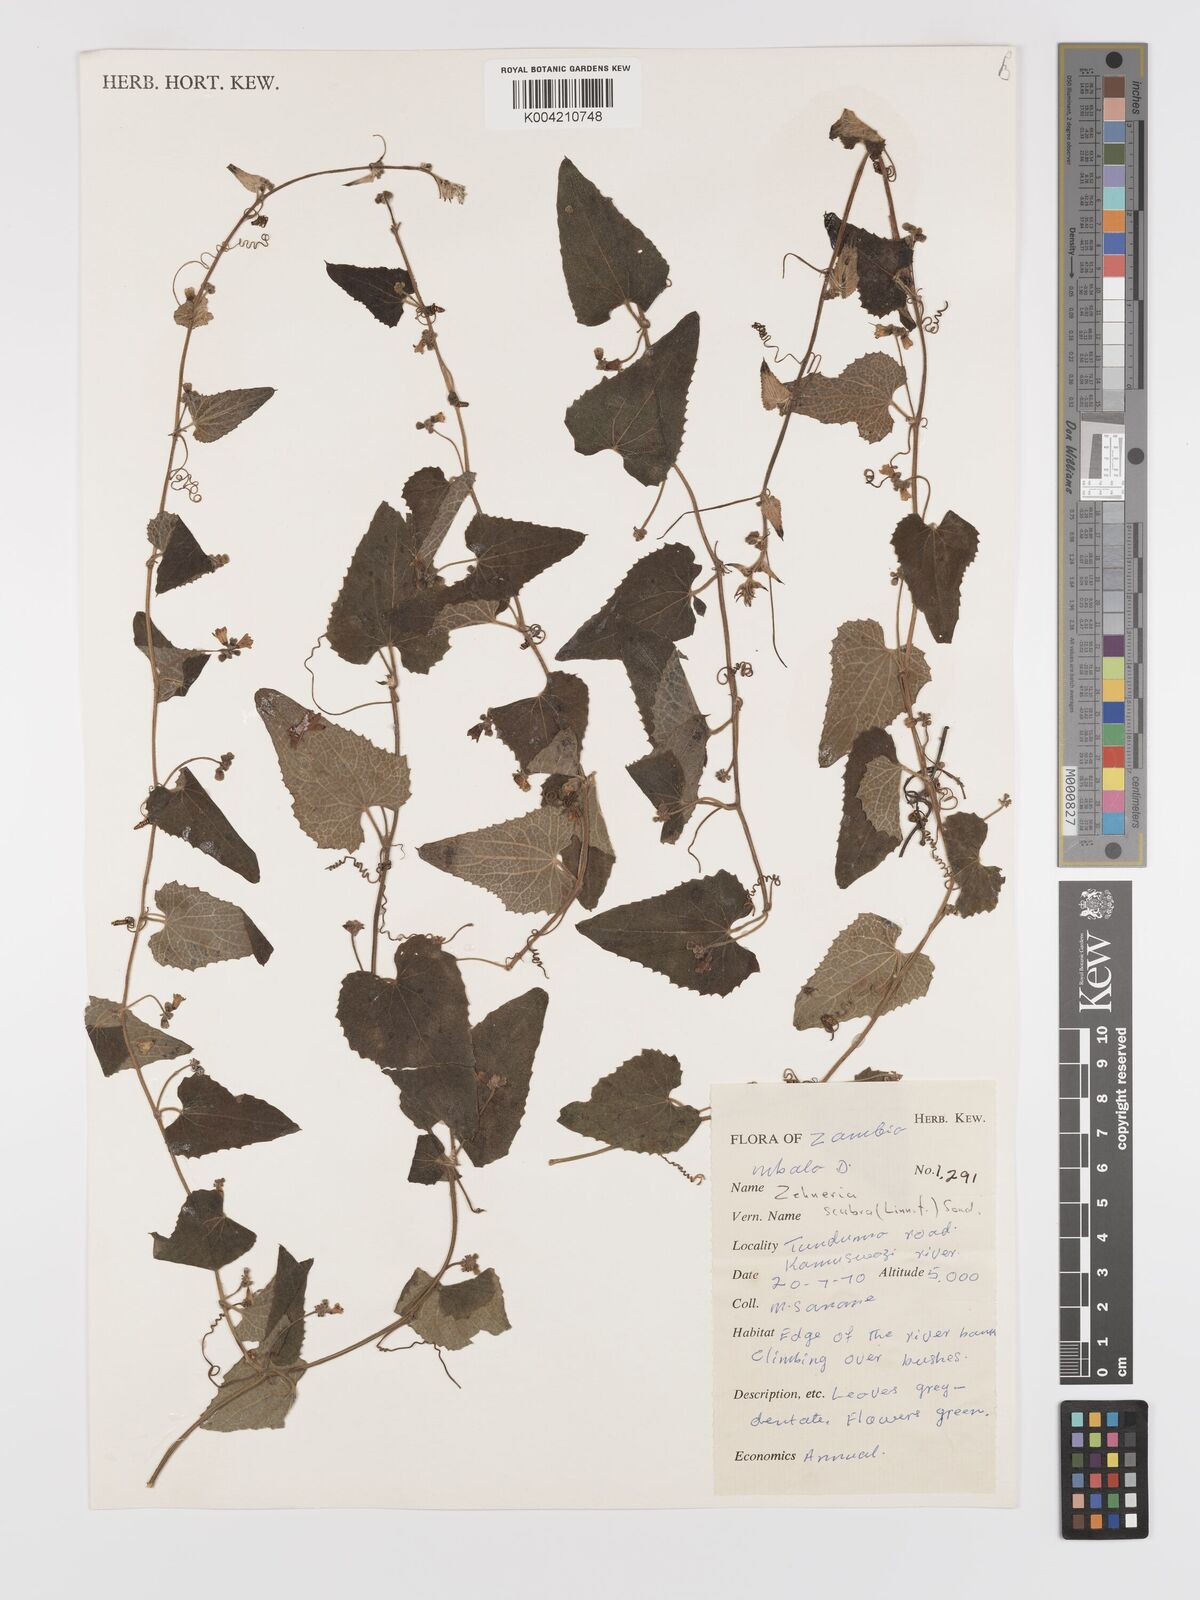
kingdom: Plantae
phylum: Tracheophyta
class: Magnoliopsida
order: Cucurbitales
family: Cucurbitaceae
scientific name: Cucurbitaceae
